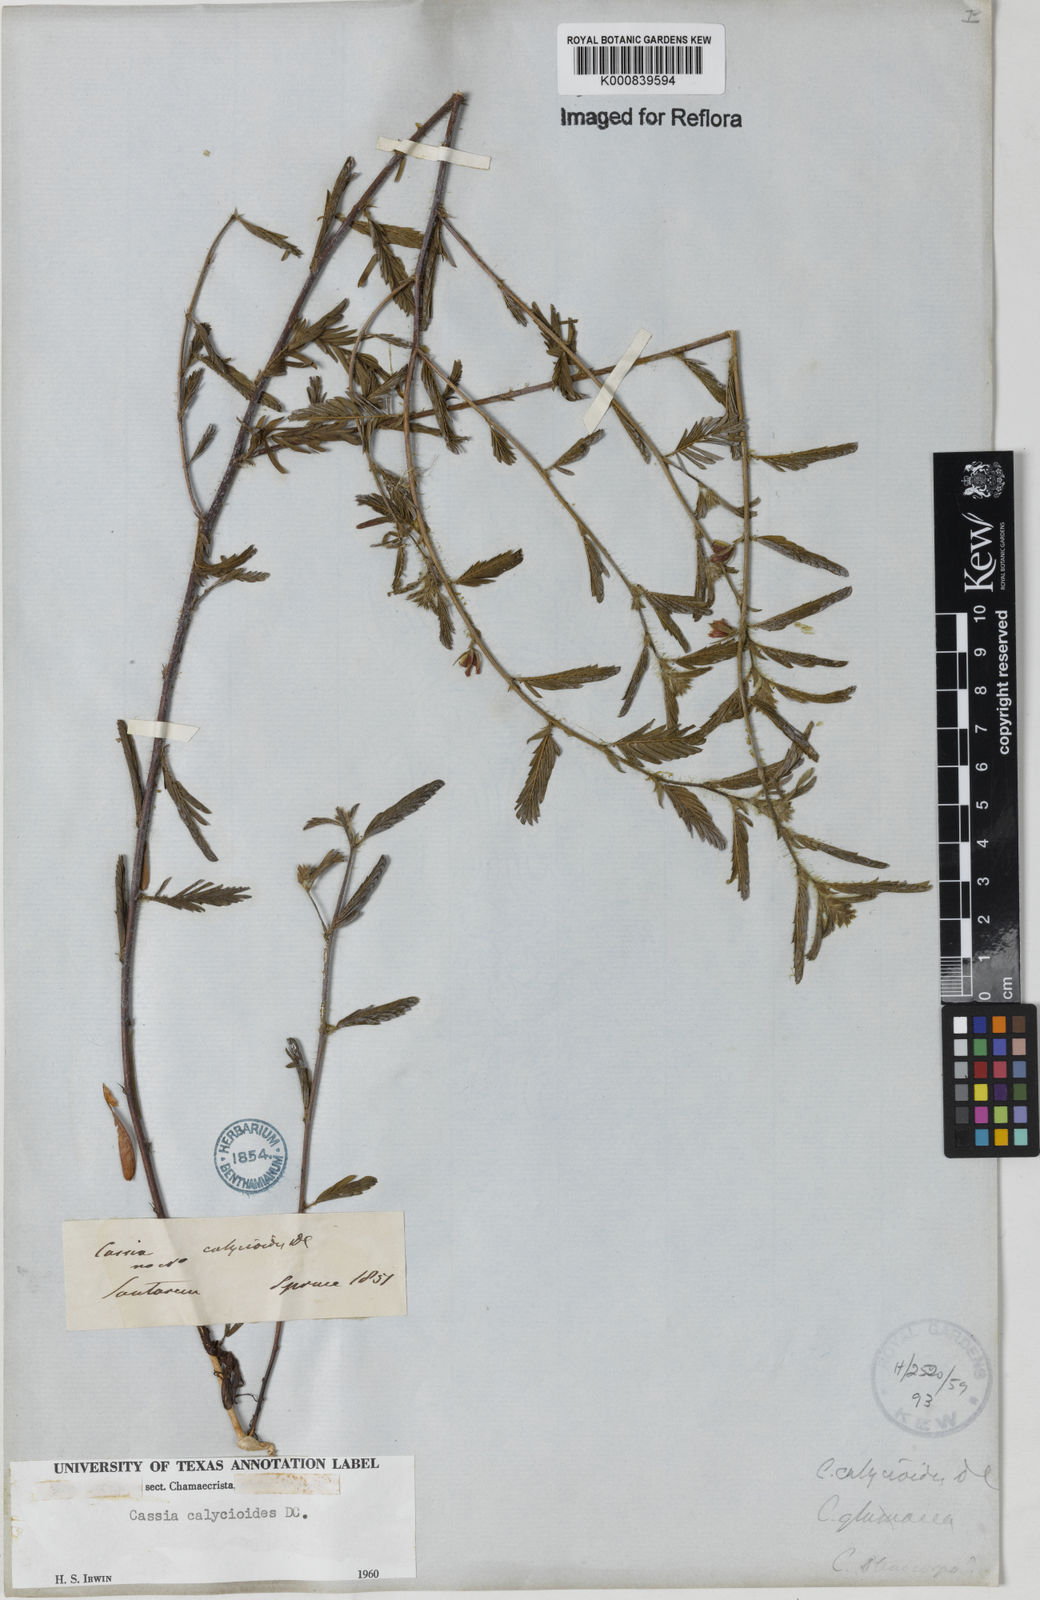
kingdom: Plantae
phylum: Tracheophyta
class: Magnoliopsida
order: Fabales
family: Fabaceae
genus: Chamaecrista
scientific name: Chamaecrista calycioides
